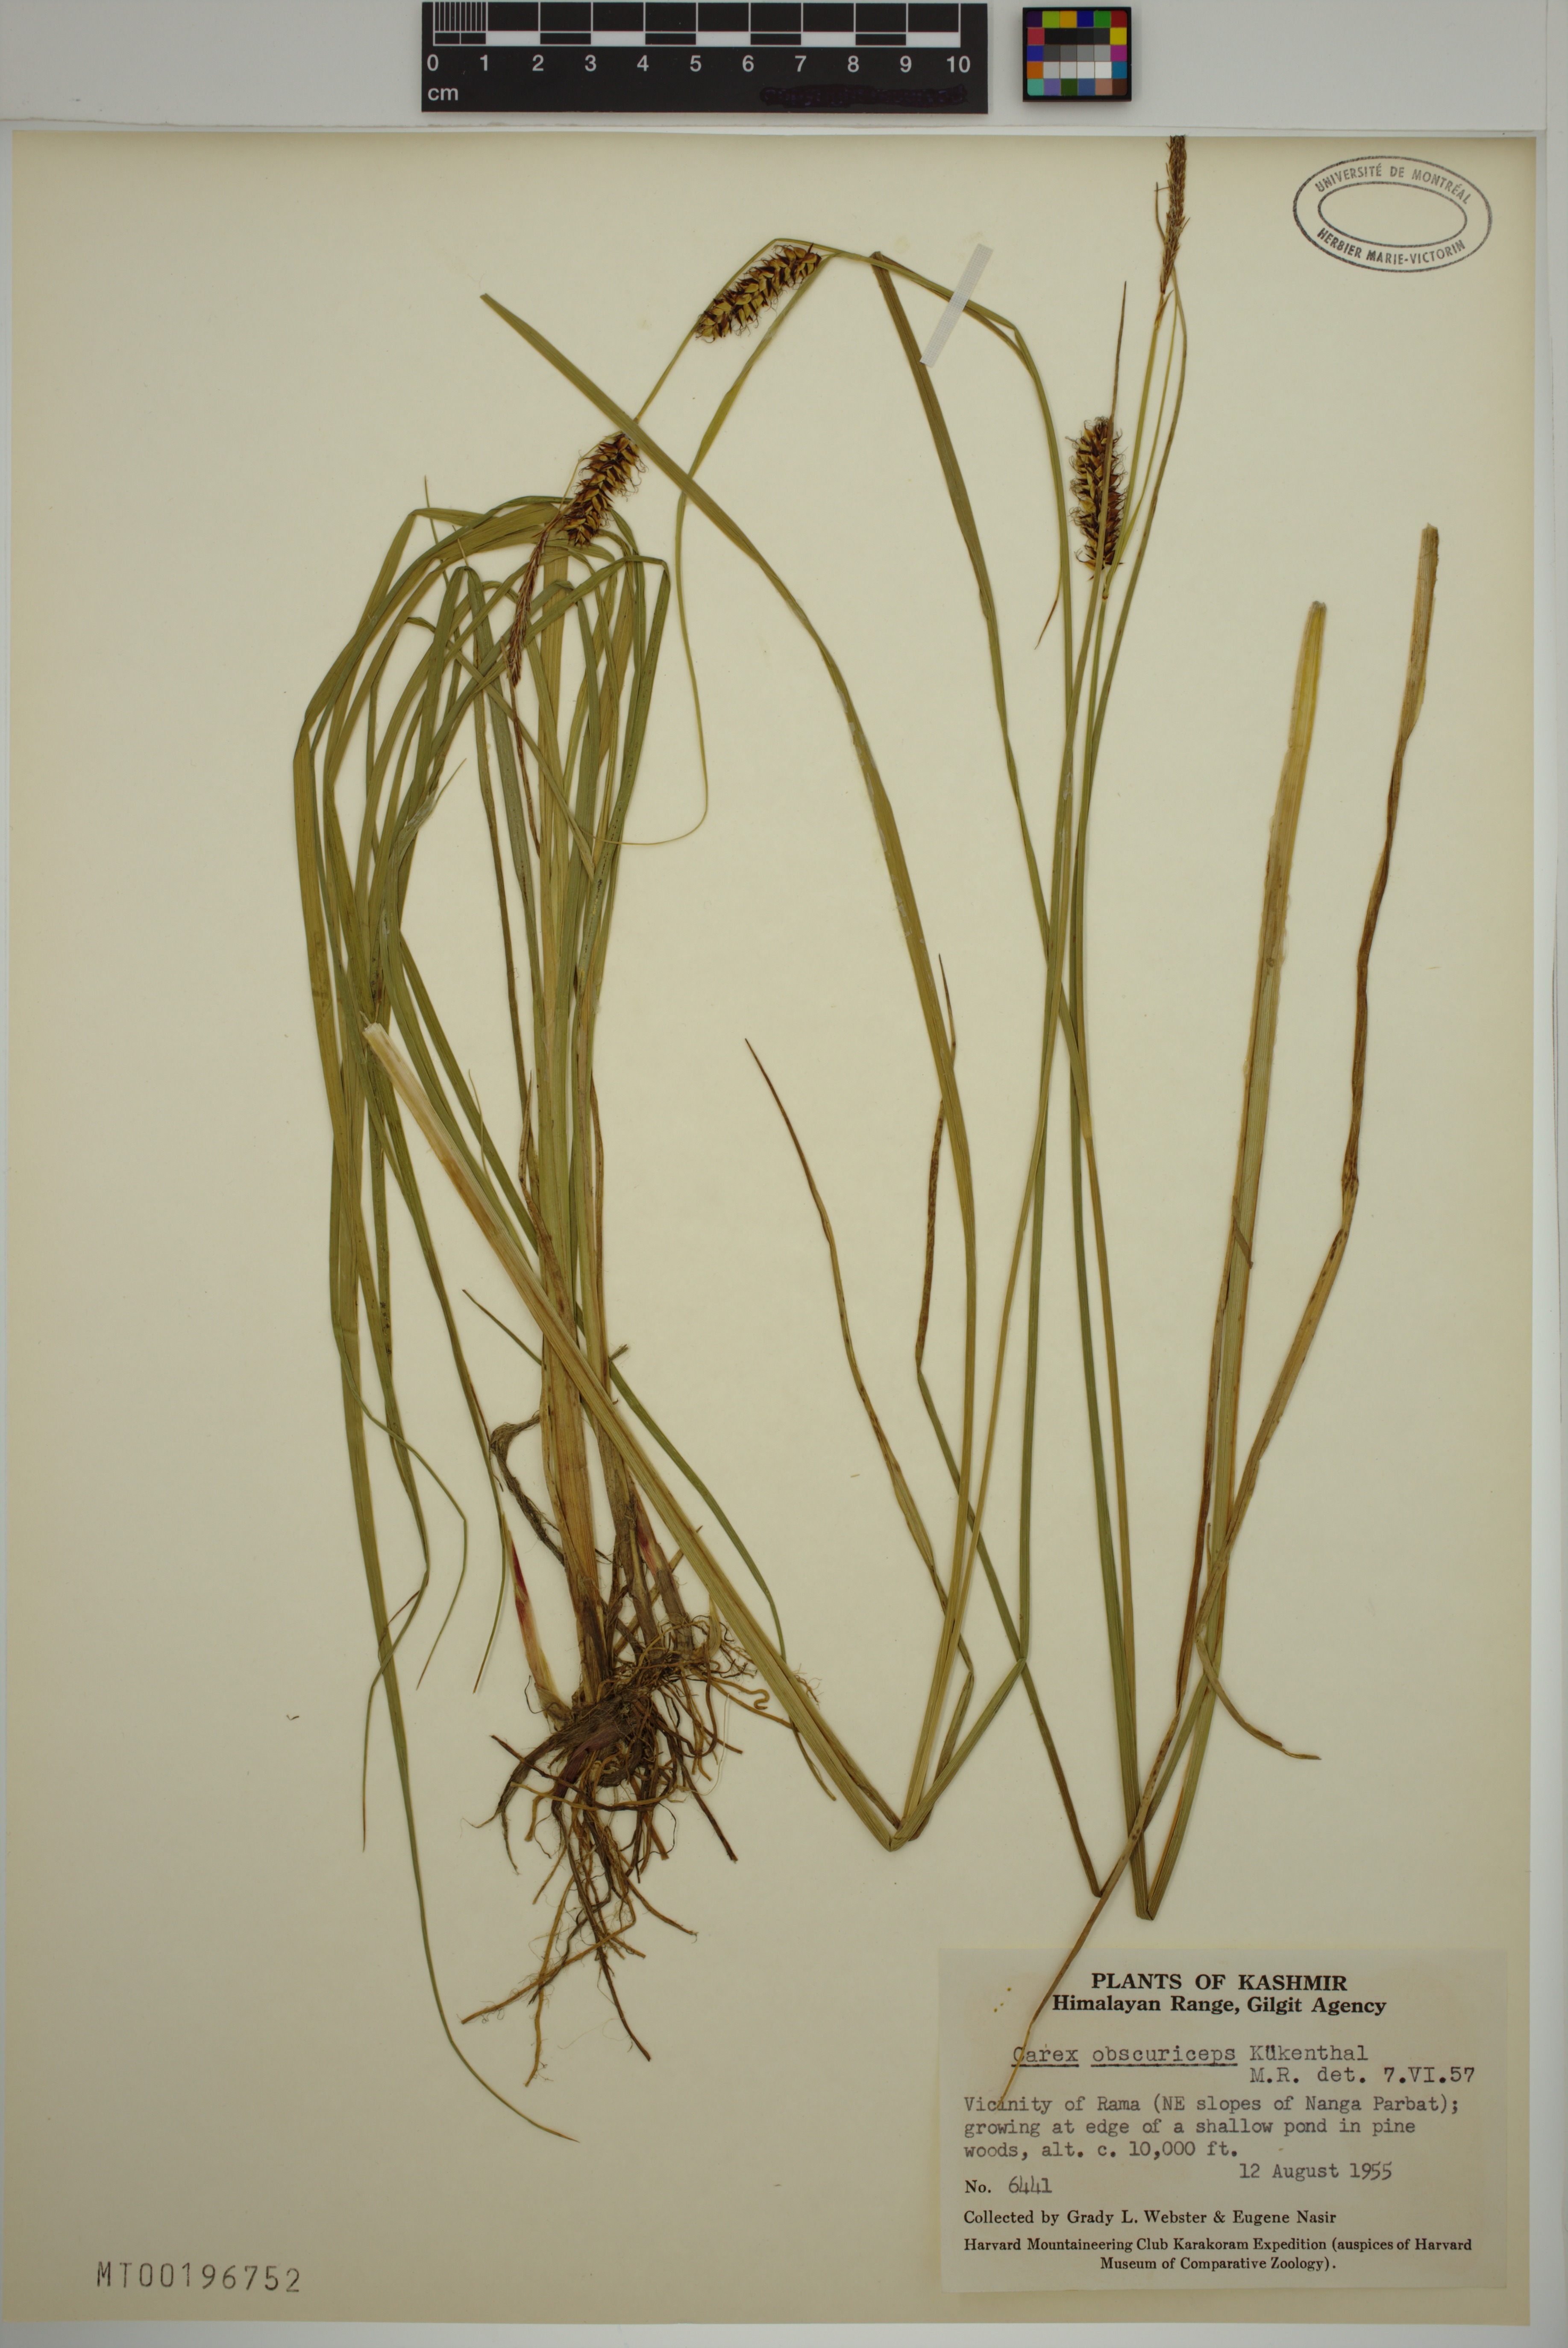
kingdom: Plantae
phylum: Tracheophyta
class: Liliopsida
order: Poales
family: Cyperaceae
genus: Carex
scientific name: Carex obscuriceps
